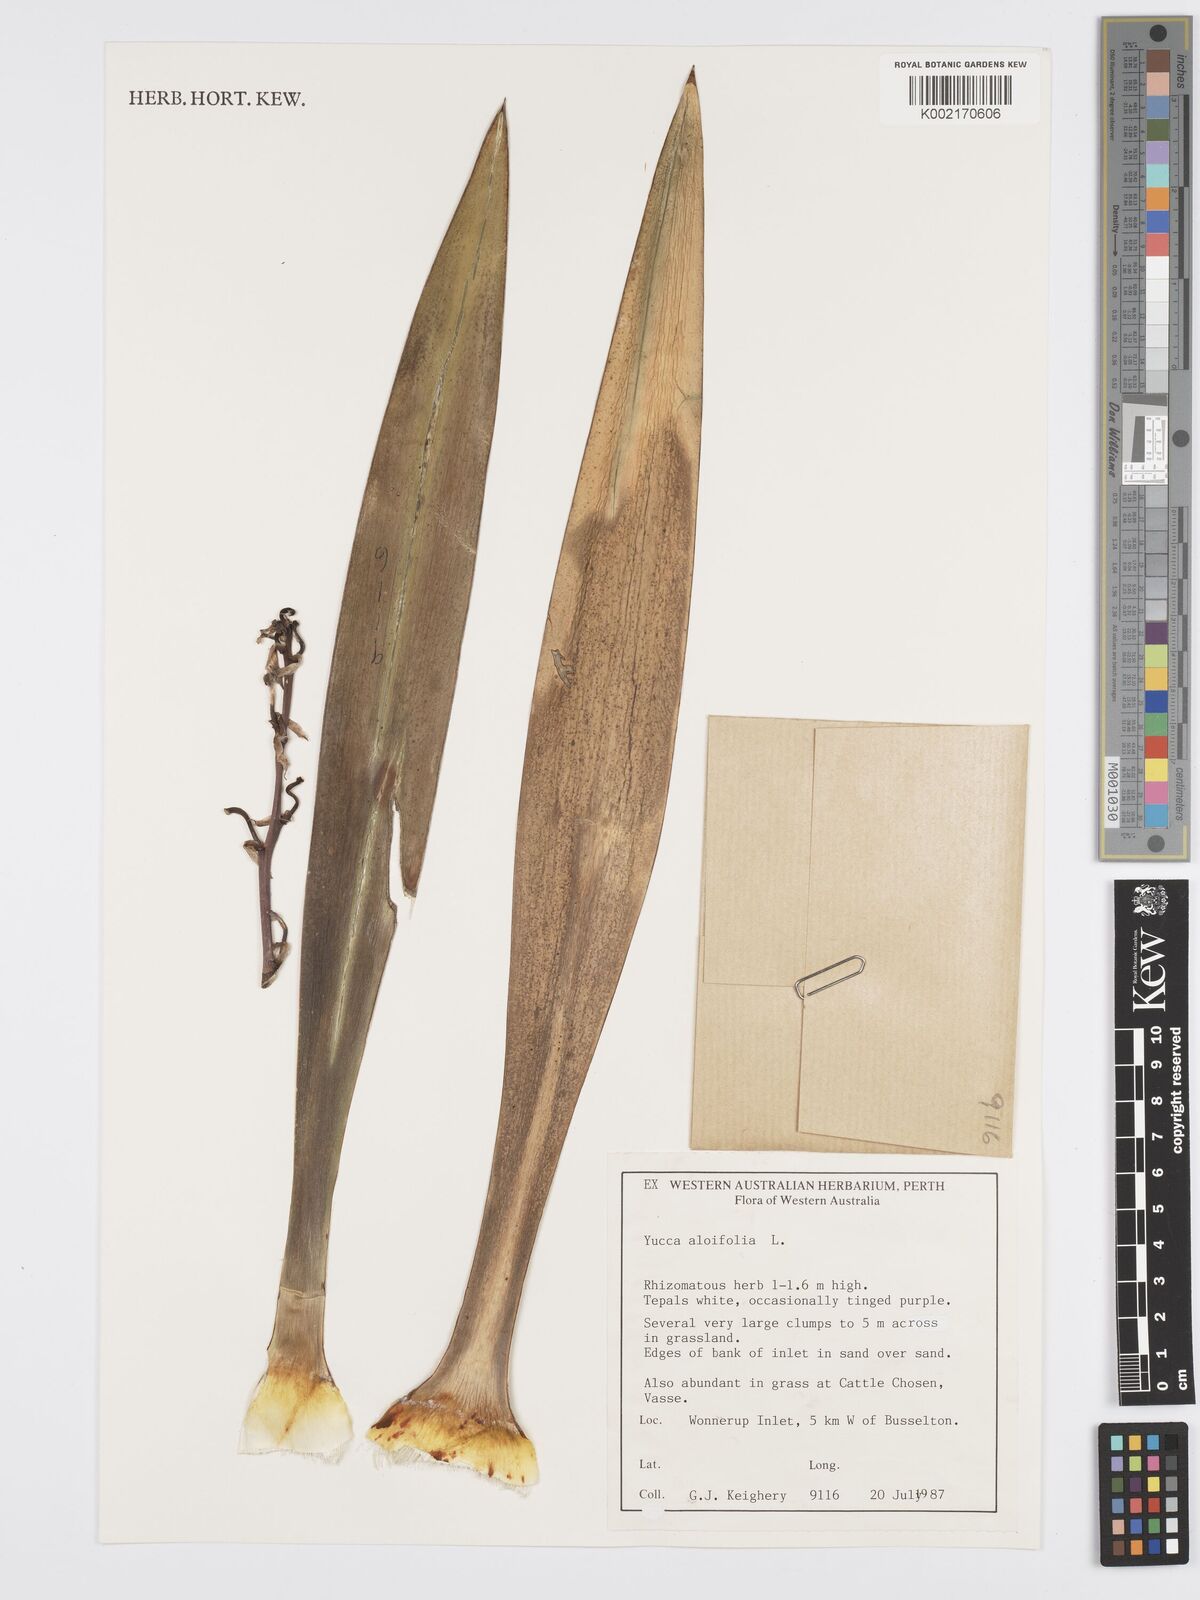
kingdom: Plantae
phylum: Tracheophyta
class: Liliopsida
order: Asparagales
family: Asparagaceae
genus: Yucca
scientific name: Yucca aloifolia
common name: Aloe yucca
